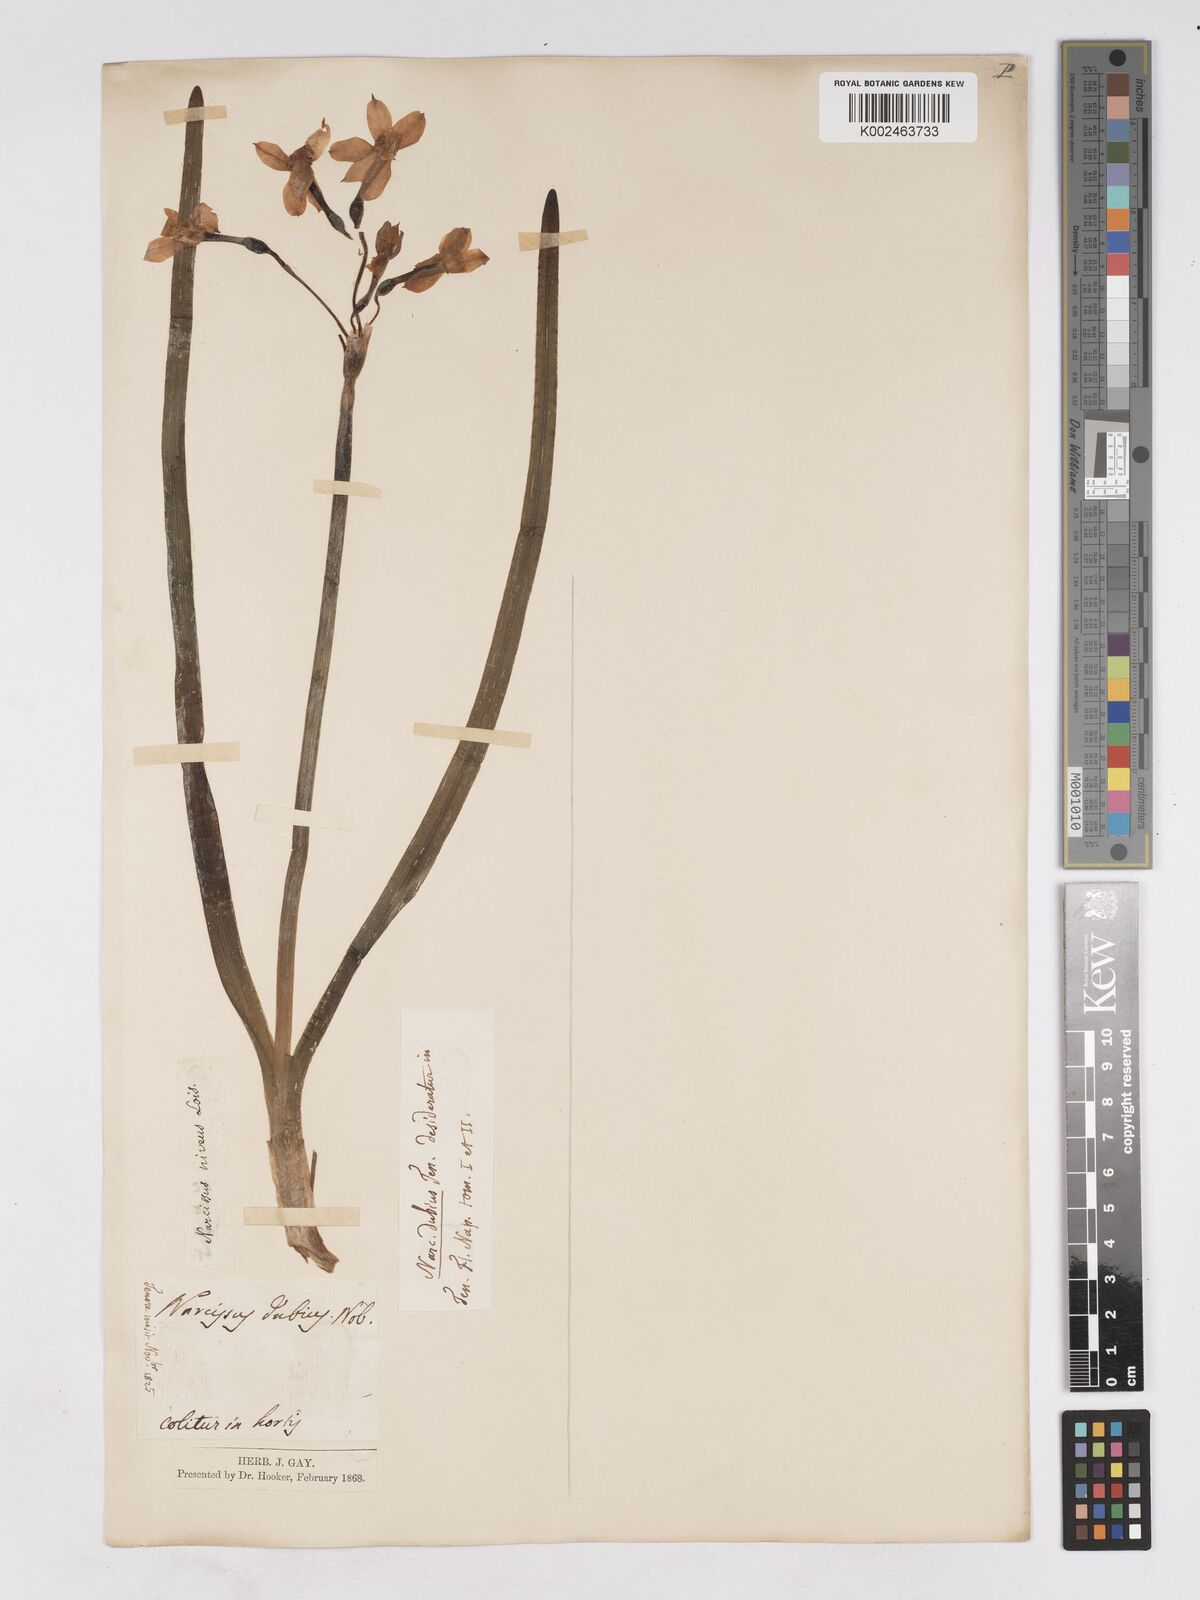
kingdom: Plantae
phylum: Tracheophyta
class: Liliopsida
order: Asparagales
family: Amaryllidaceae
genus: Narcissus
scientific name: Narcissus tazetta
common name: Bunch-flowered daffodil
